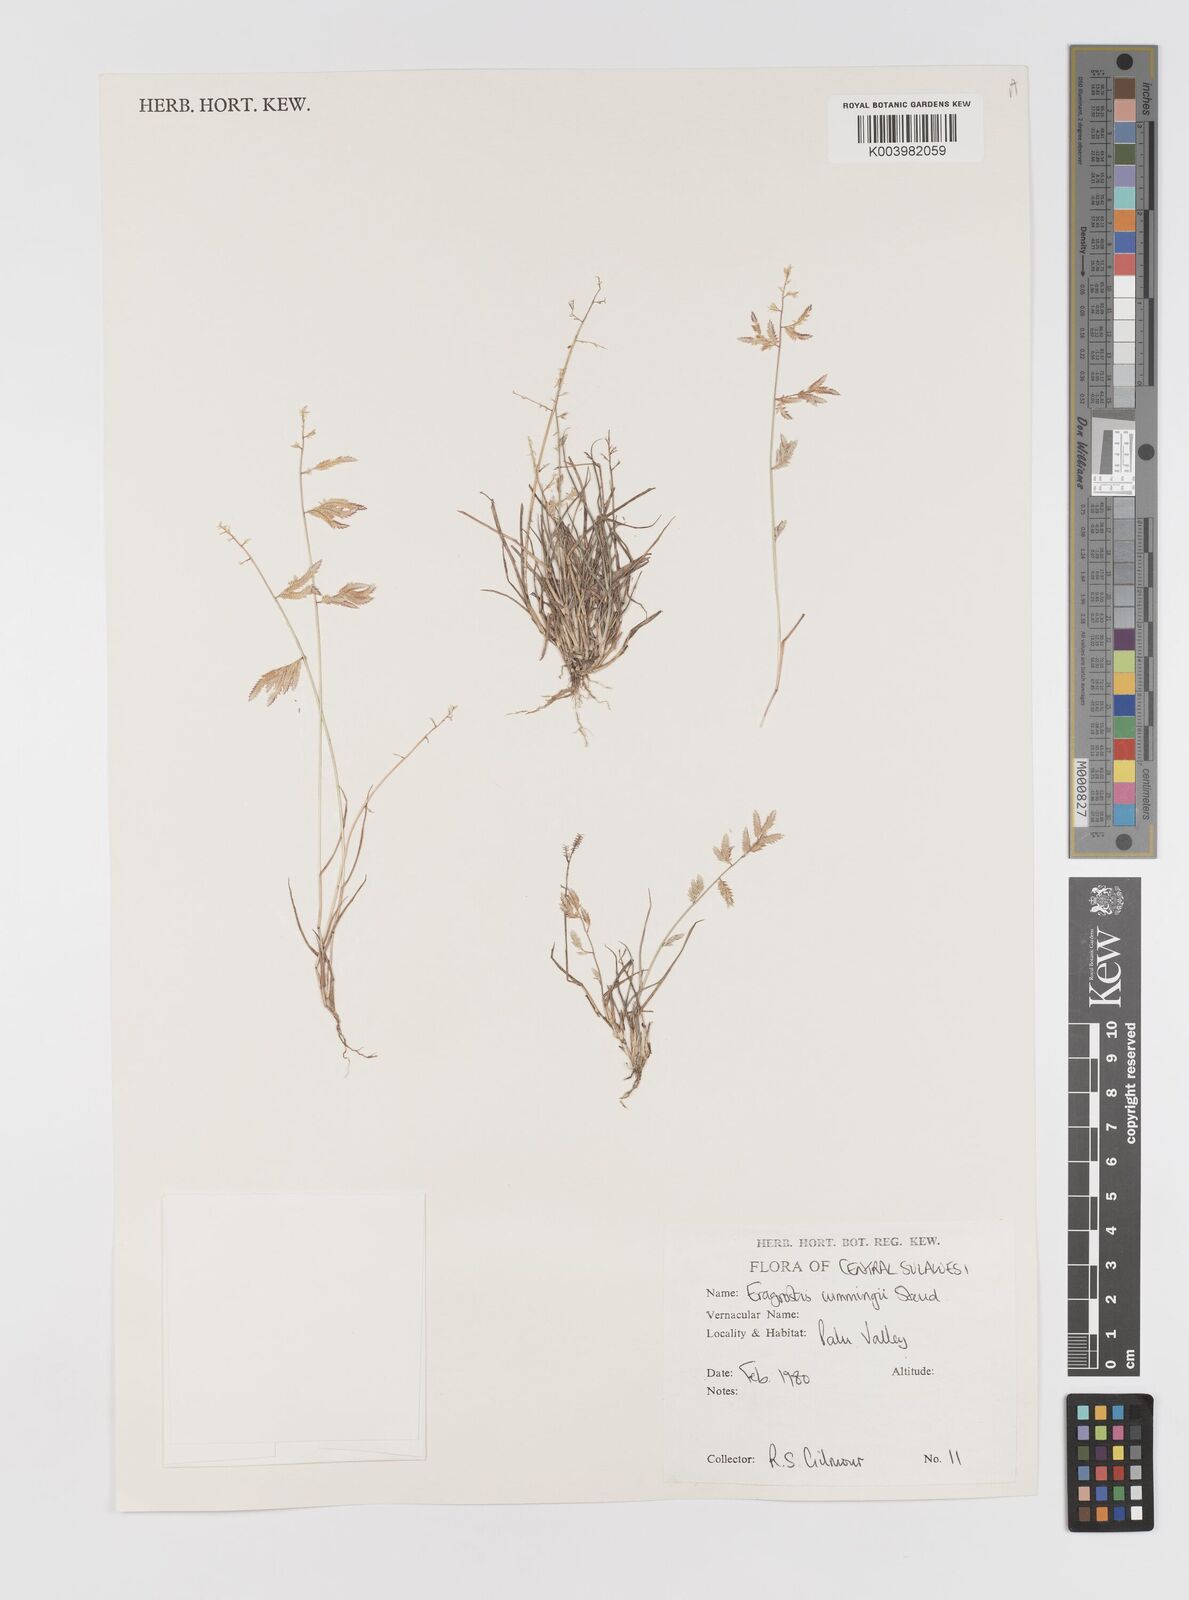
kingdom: Plantae
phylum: Tracheophyta
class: Liliopsida
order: Poales
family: Poaceae
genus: Eragrostis
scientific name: Eragrostis cumingii
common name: Cuming's lovegrass
